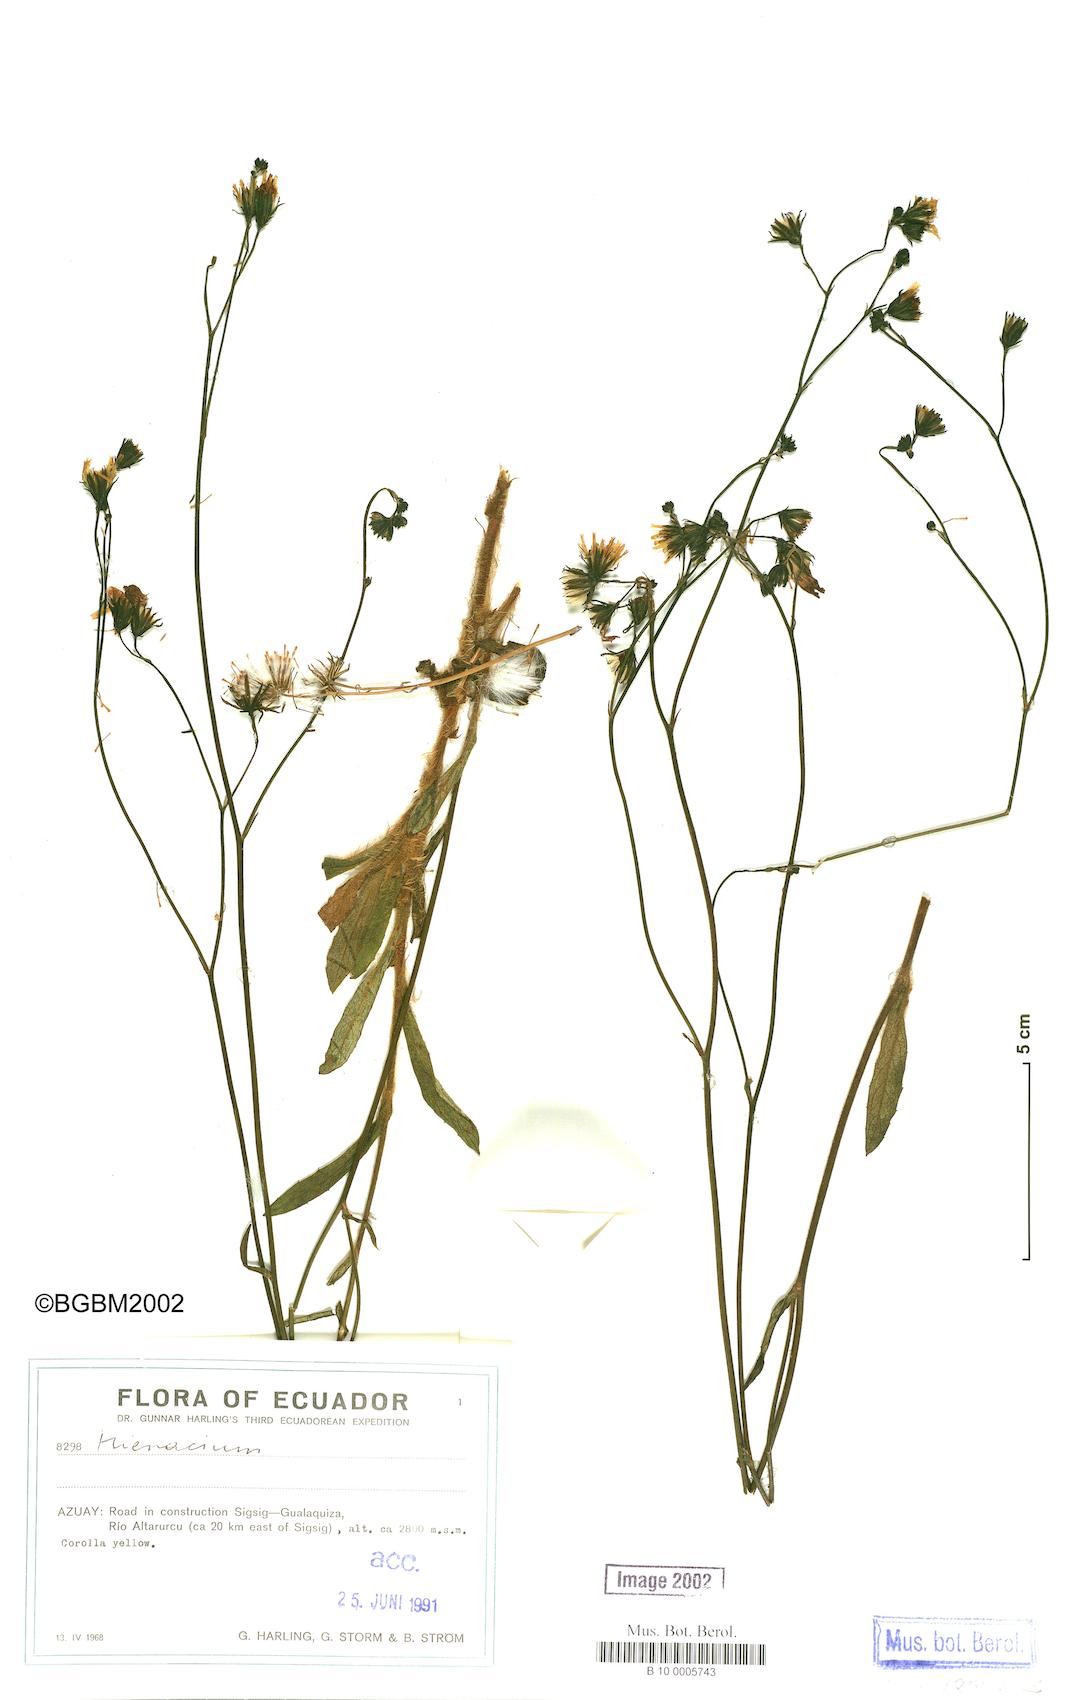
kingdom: Plantae
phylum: Tracheophyta
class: Magnoliopsida
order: Asterales
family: Asteraceae
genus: Hieracium
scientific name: Hieracium
